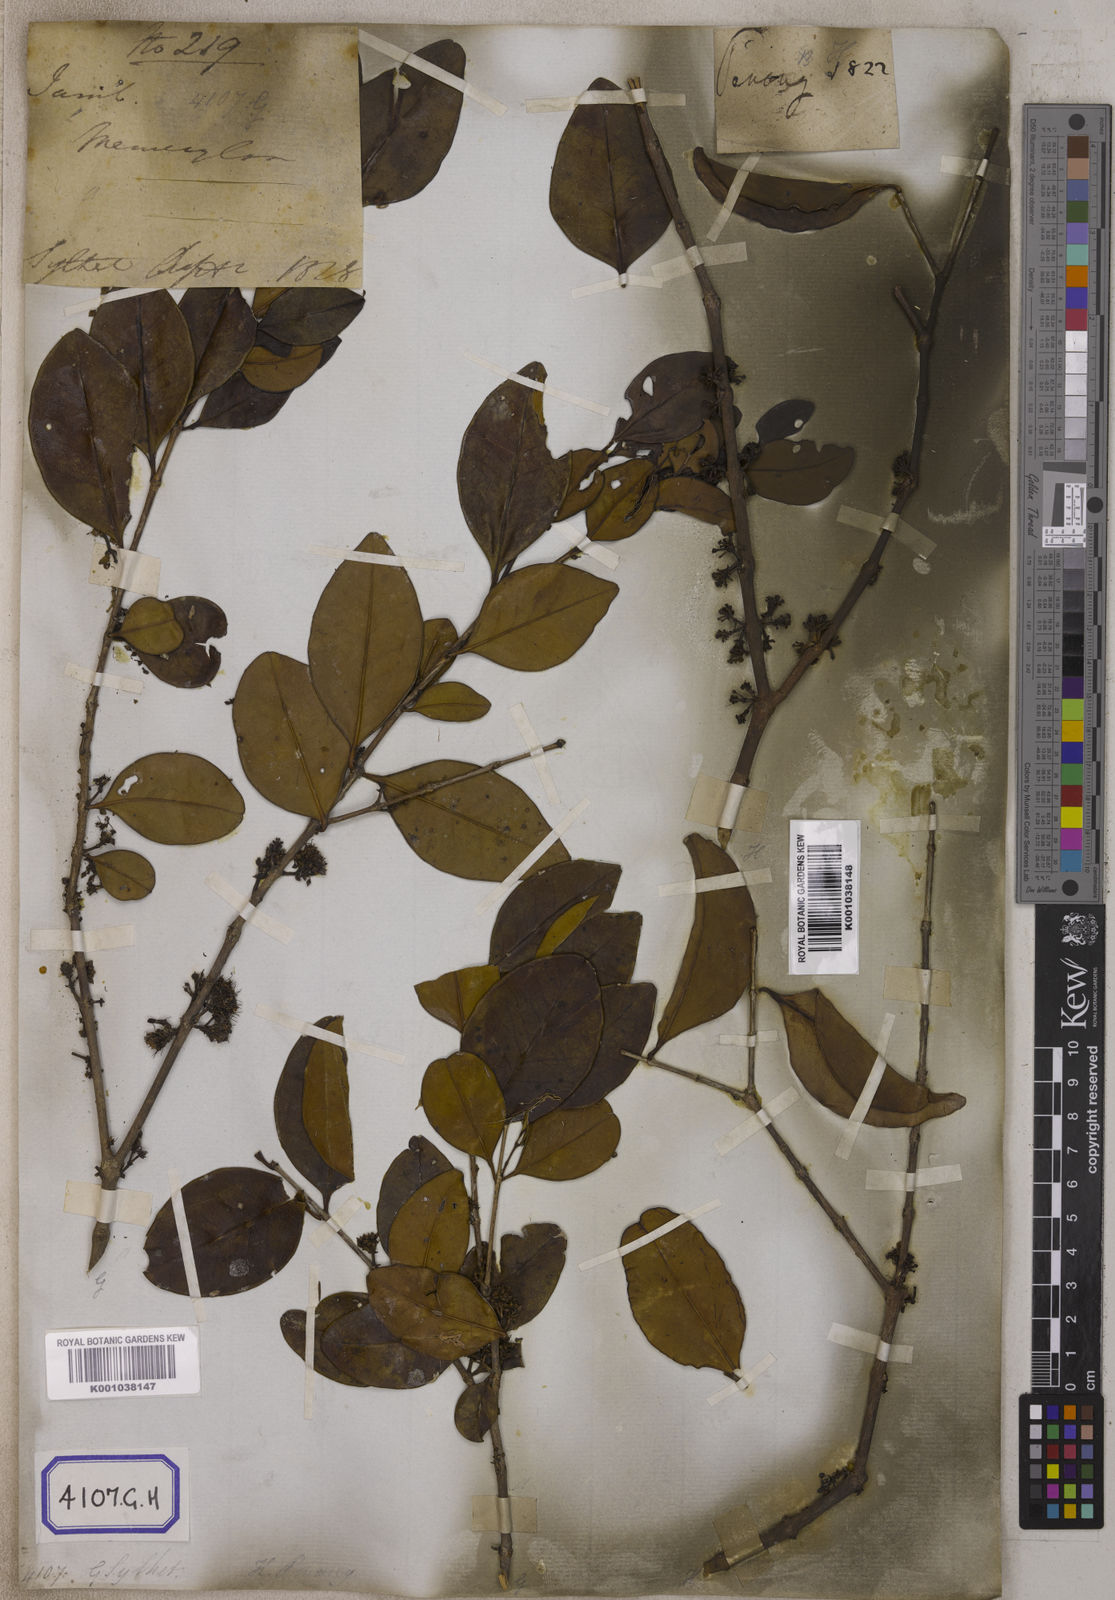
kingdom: Plantae
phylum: Tracheophyta
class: Magnoliopsida
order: Myrtales
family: Melastomataceae
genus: Memecylon
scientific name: Memecylon edule
